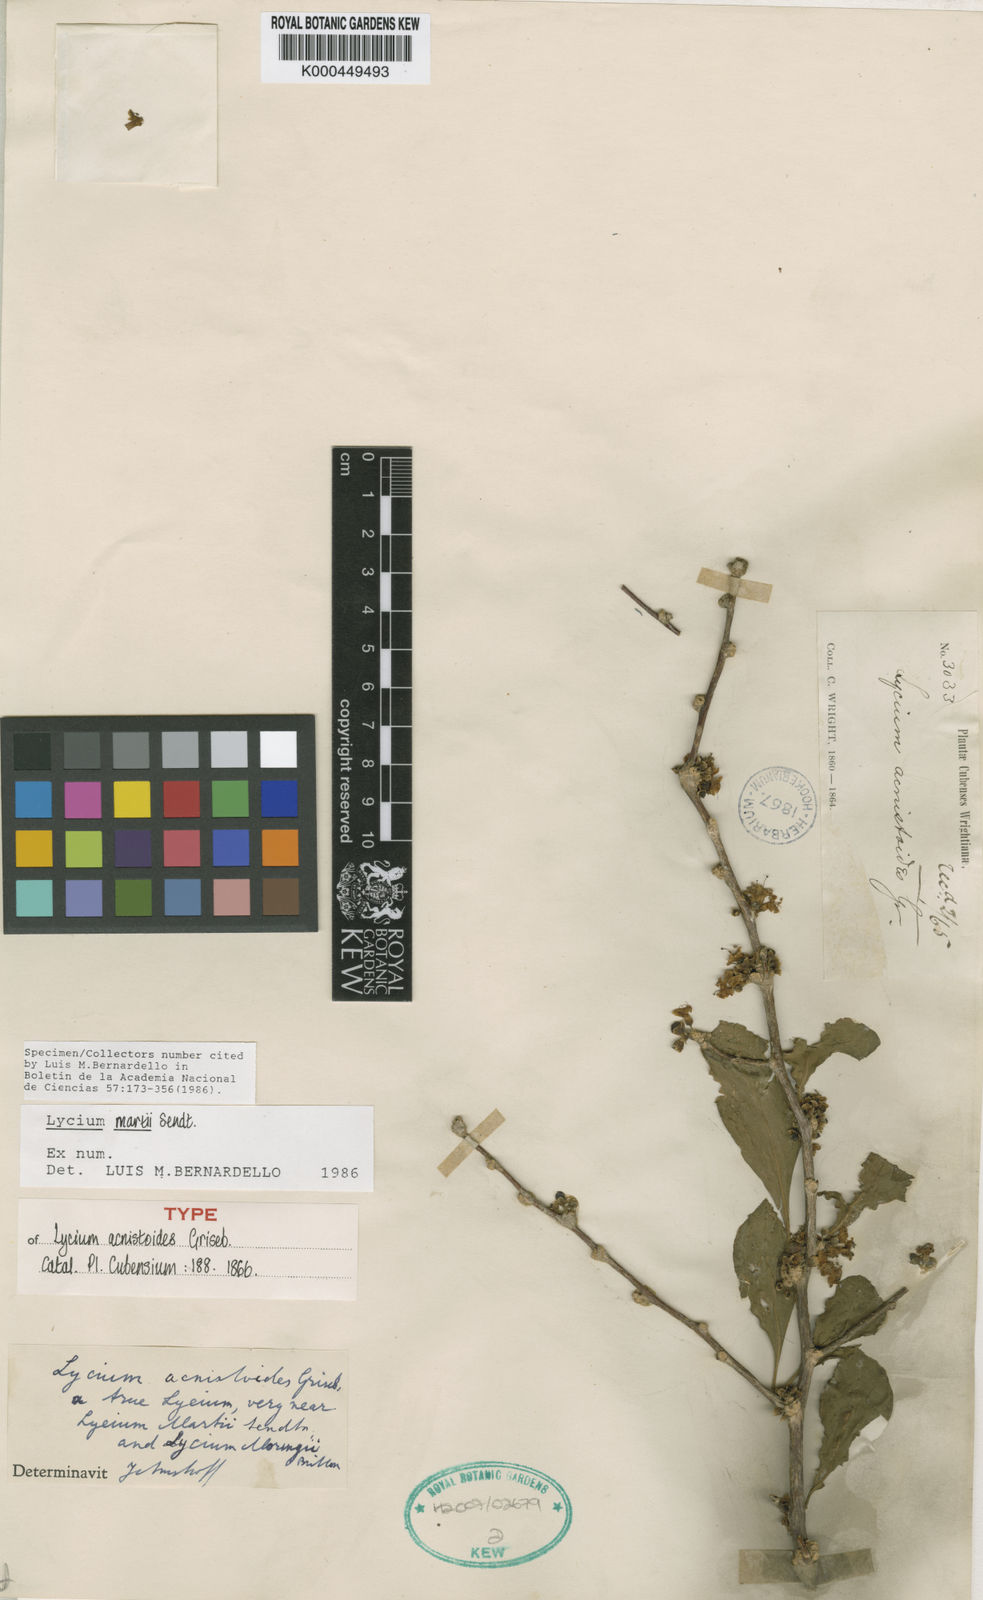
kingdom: Plantae
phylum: Tracheophyta
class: Magnoliopsida
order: Solanales
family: Solanaceae
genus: Lycium
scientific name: Lycium martii
